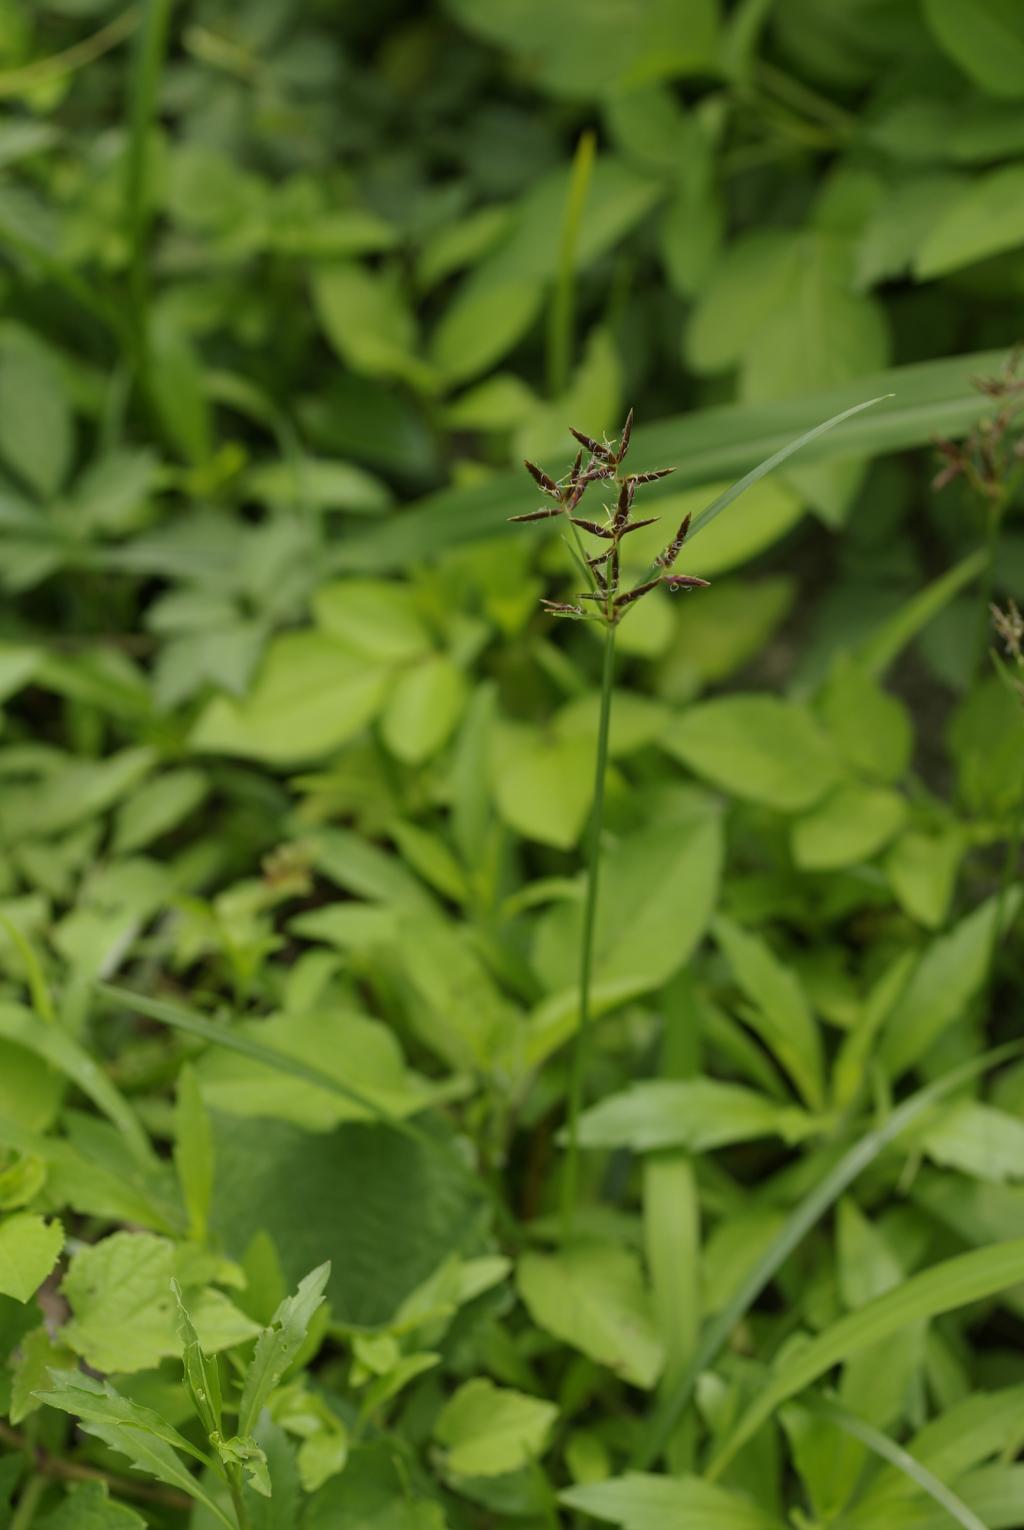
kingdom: Plantae
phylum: Tracheophyta
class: Liliopsida
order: Poales
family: Cyperaceae
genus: Cyperus
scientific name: Cyperus rotundus
